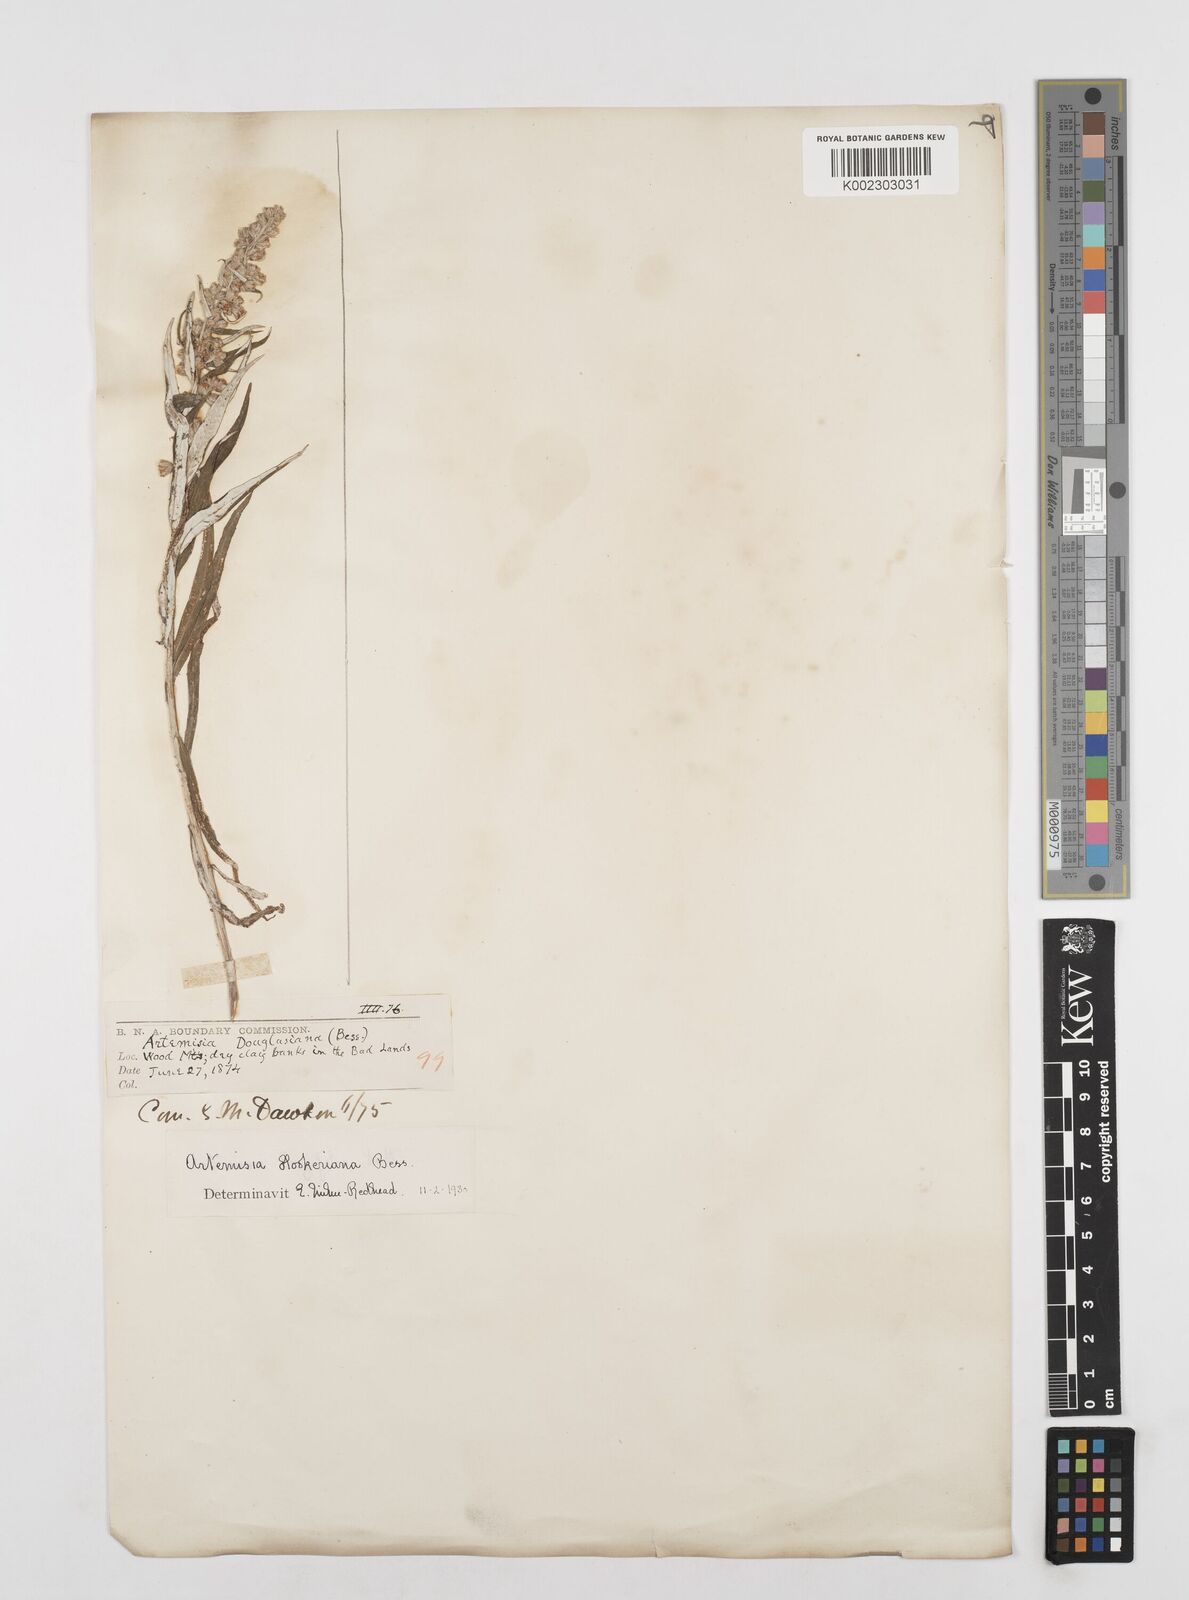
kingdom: Plantae
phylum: Tracheophyta
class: Magnoliopsida
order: Asterales
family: Asteraceae
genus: Artemisia
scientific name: Artemisia tilesii
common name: Aleutian mugwort
